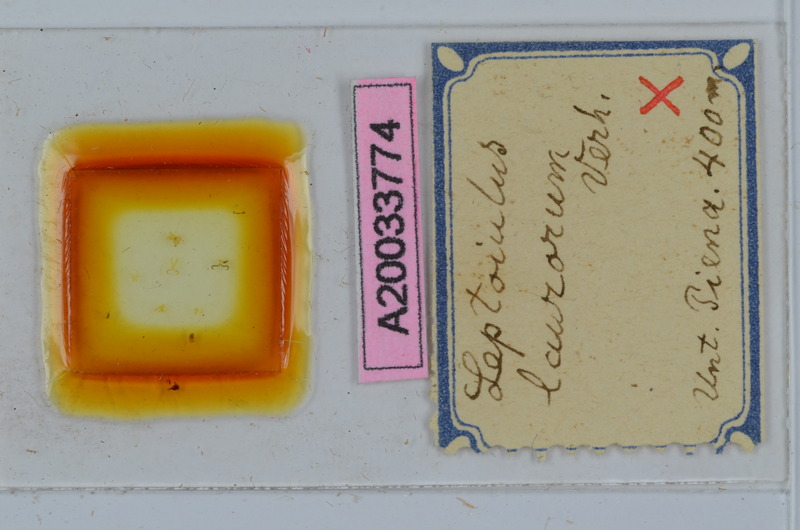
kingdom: Animalia
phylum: Arthropoda
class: Diplopoda
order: Julida
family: Julidae
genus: Leptoiulus
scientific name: Leptoiulus laurorum
